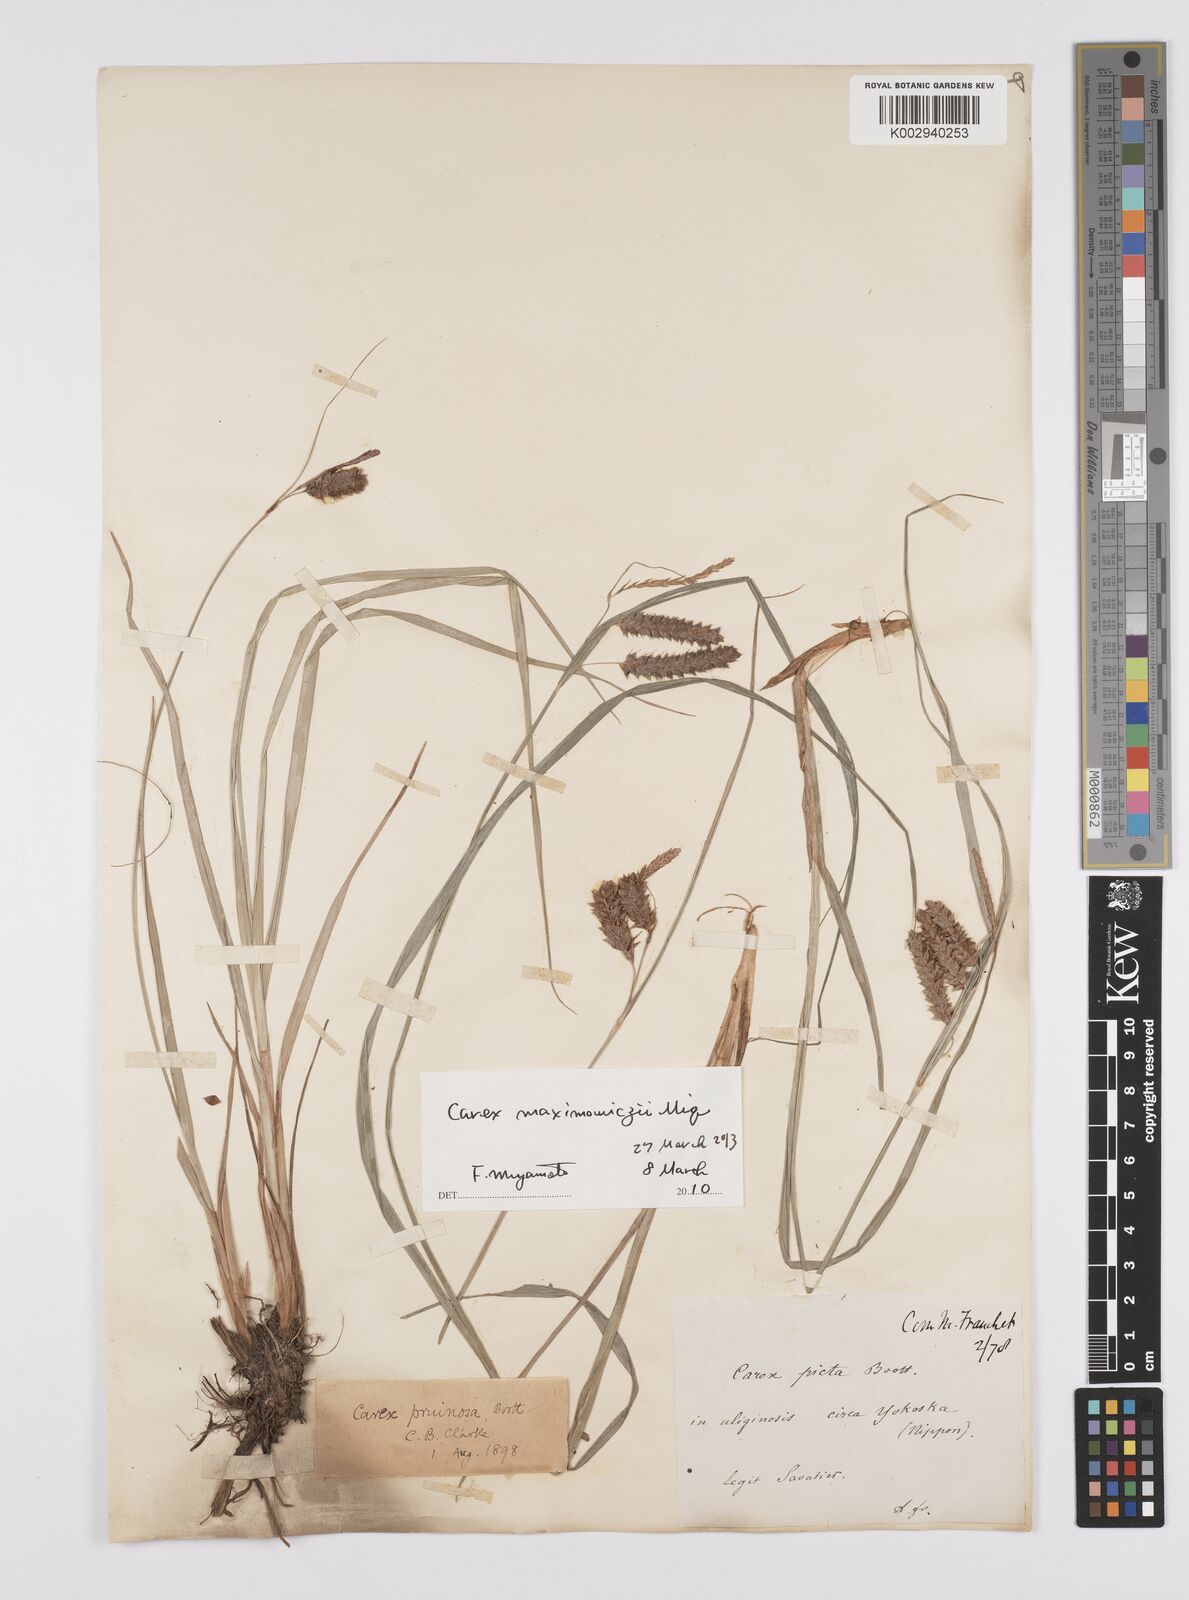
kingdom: Plantae
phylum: Tracheophyta
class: Liliopsida
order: Poales
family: Cyperaceae
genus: Carex
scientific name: Carex pruinosa
